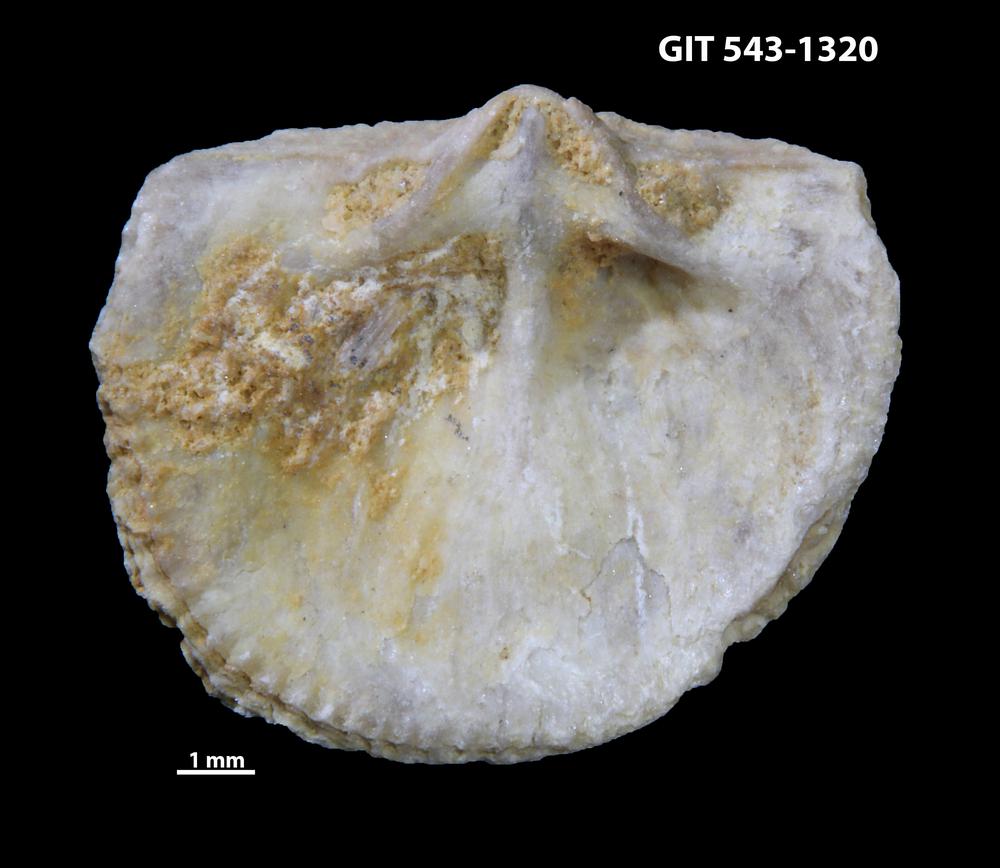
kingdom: Animalia
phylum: Brachiopoda
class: Rhynchonellata
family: Clitambonitidae
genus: Clitambonites
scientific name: Clitambonites Orthisina schmidti
